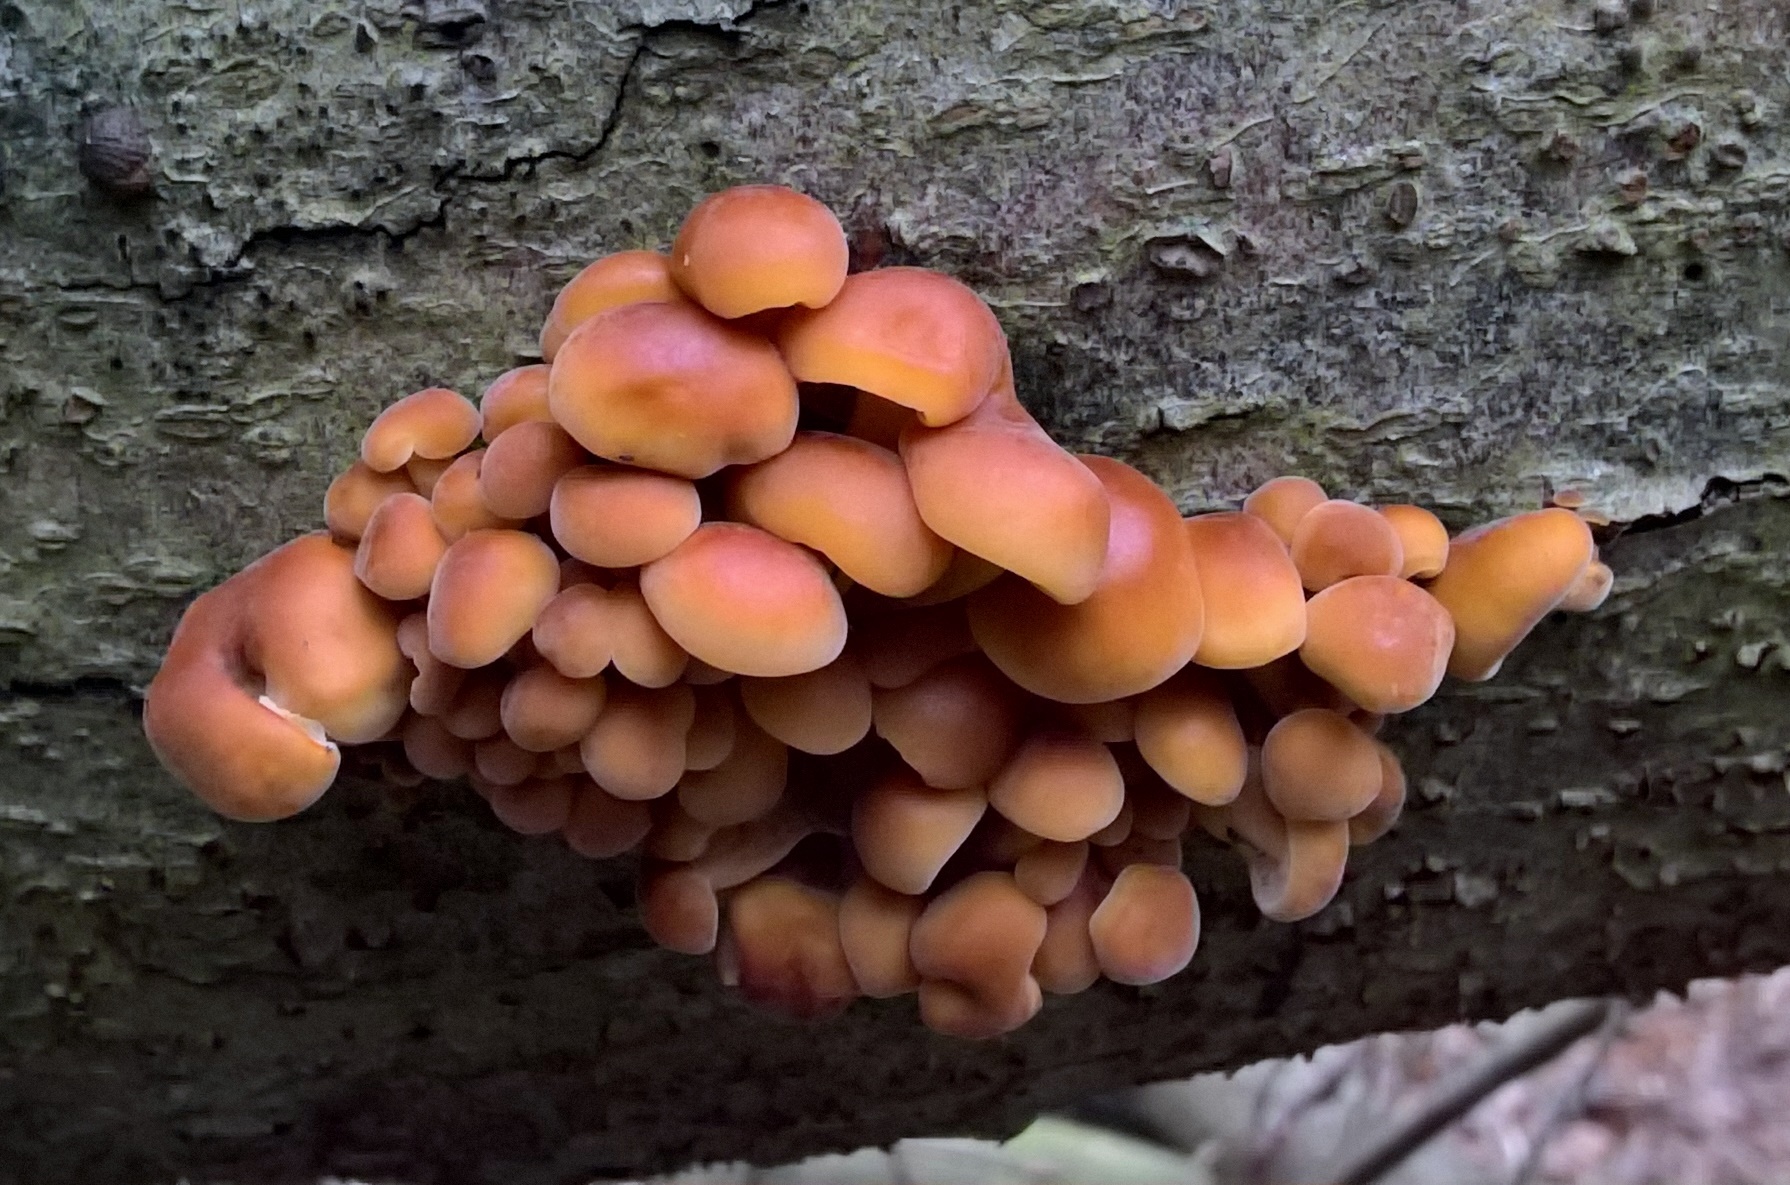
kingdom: Fungi
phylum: Basidiomycota
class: Agaricomycetes
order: Agaricales
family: Physalacriaceae
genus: Flammulina
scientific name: Flammulina velutipes
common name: gul fløjlsfod
